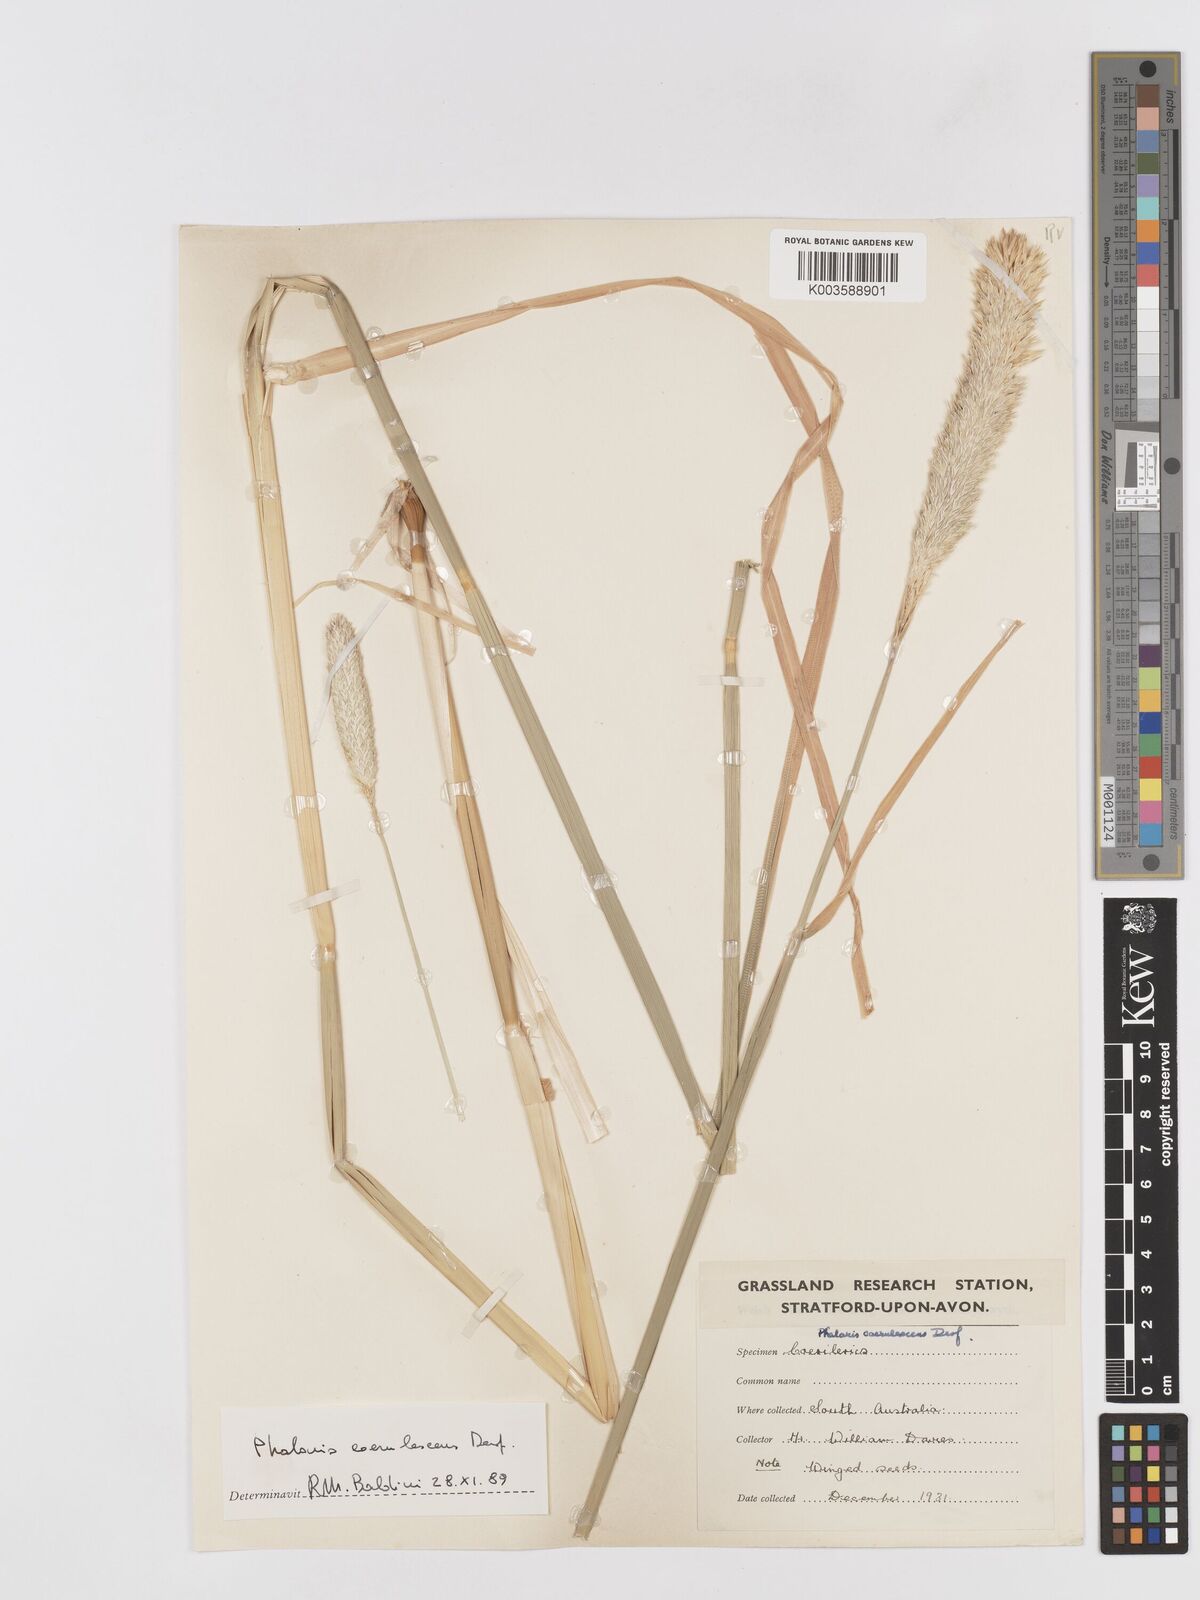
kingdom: Plantae
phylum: Tracheophyta
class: Liliopsida
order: Poales
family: Poaceae
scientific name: Poaceae
